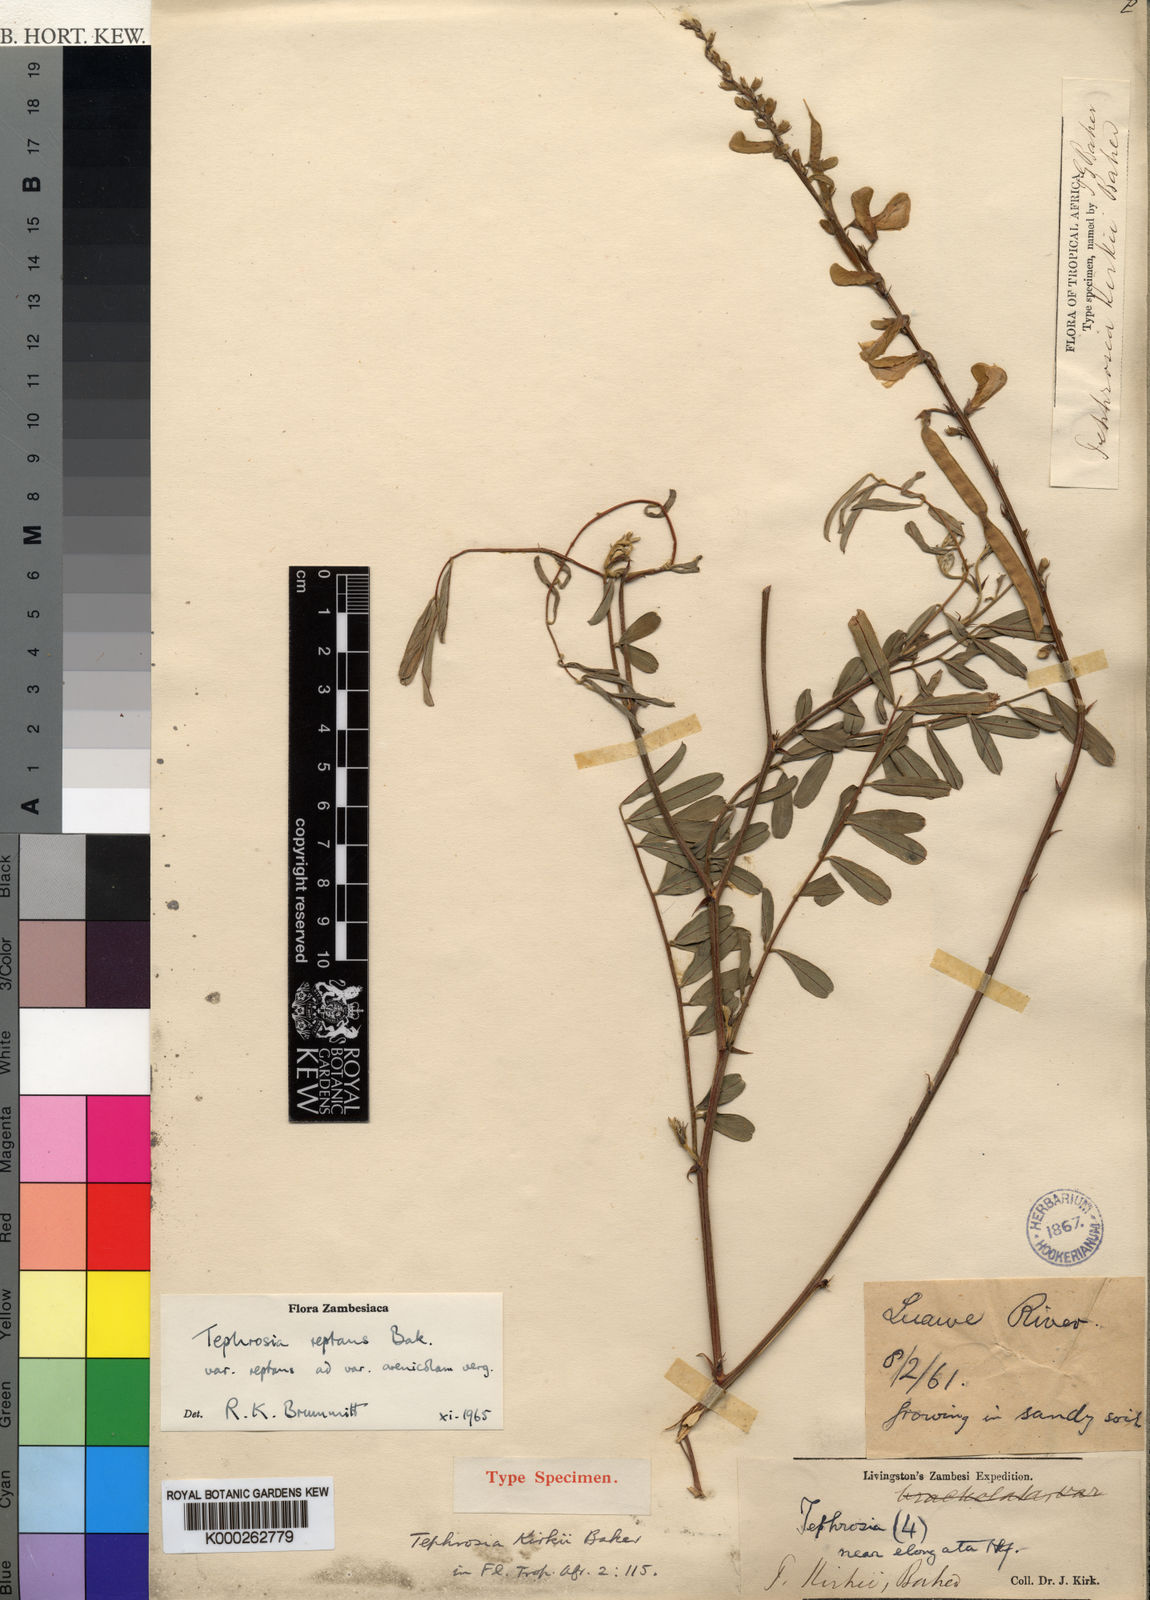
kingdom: Plantae
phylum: Tracheophyta
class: Magnoliopsida
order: Fabales
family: Fabaceae
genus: Tephrosia
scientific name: Tephrosia reptans
